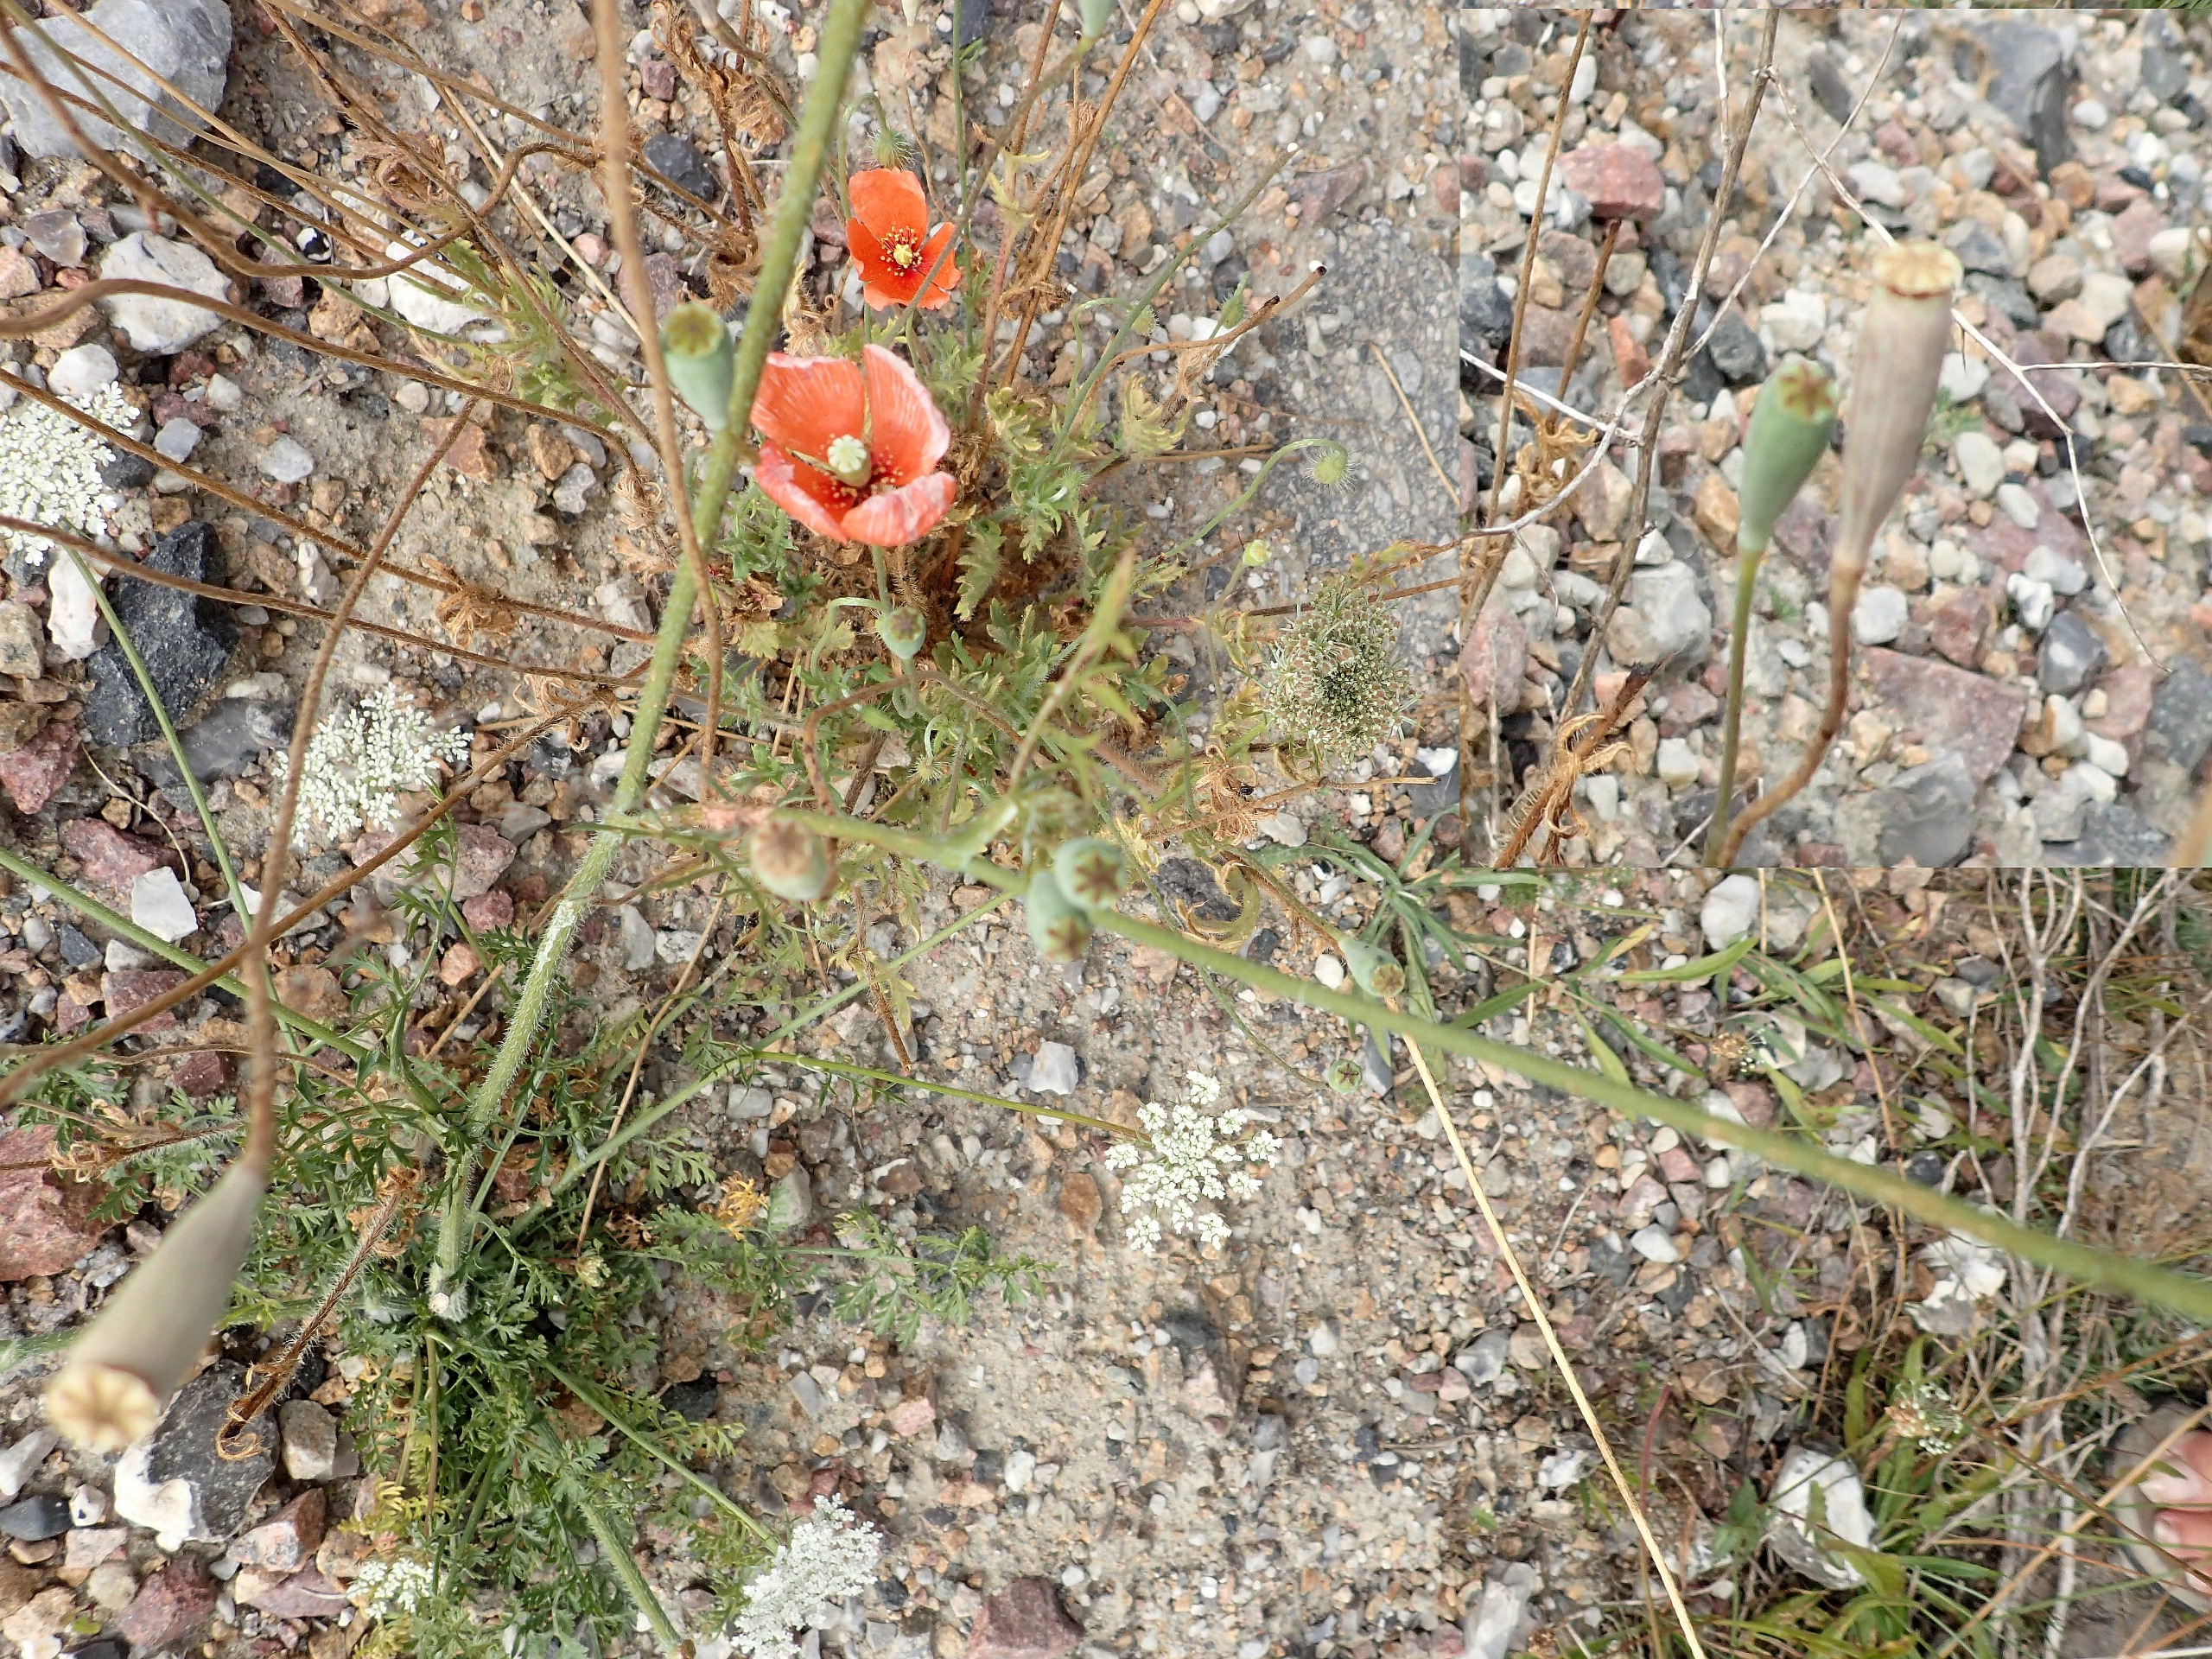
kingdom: Plantae
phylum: Tracheophyta
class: Magnoliopsida
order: Ranunculales
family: Papaveraceae
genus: Papaver
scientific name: Papaver dubium
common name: Gærde-valmue
